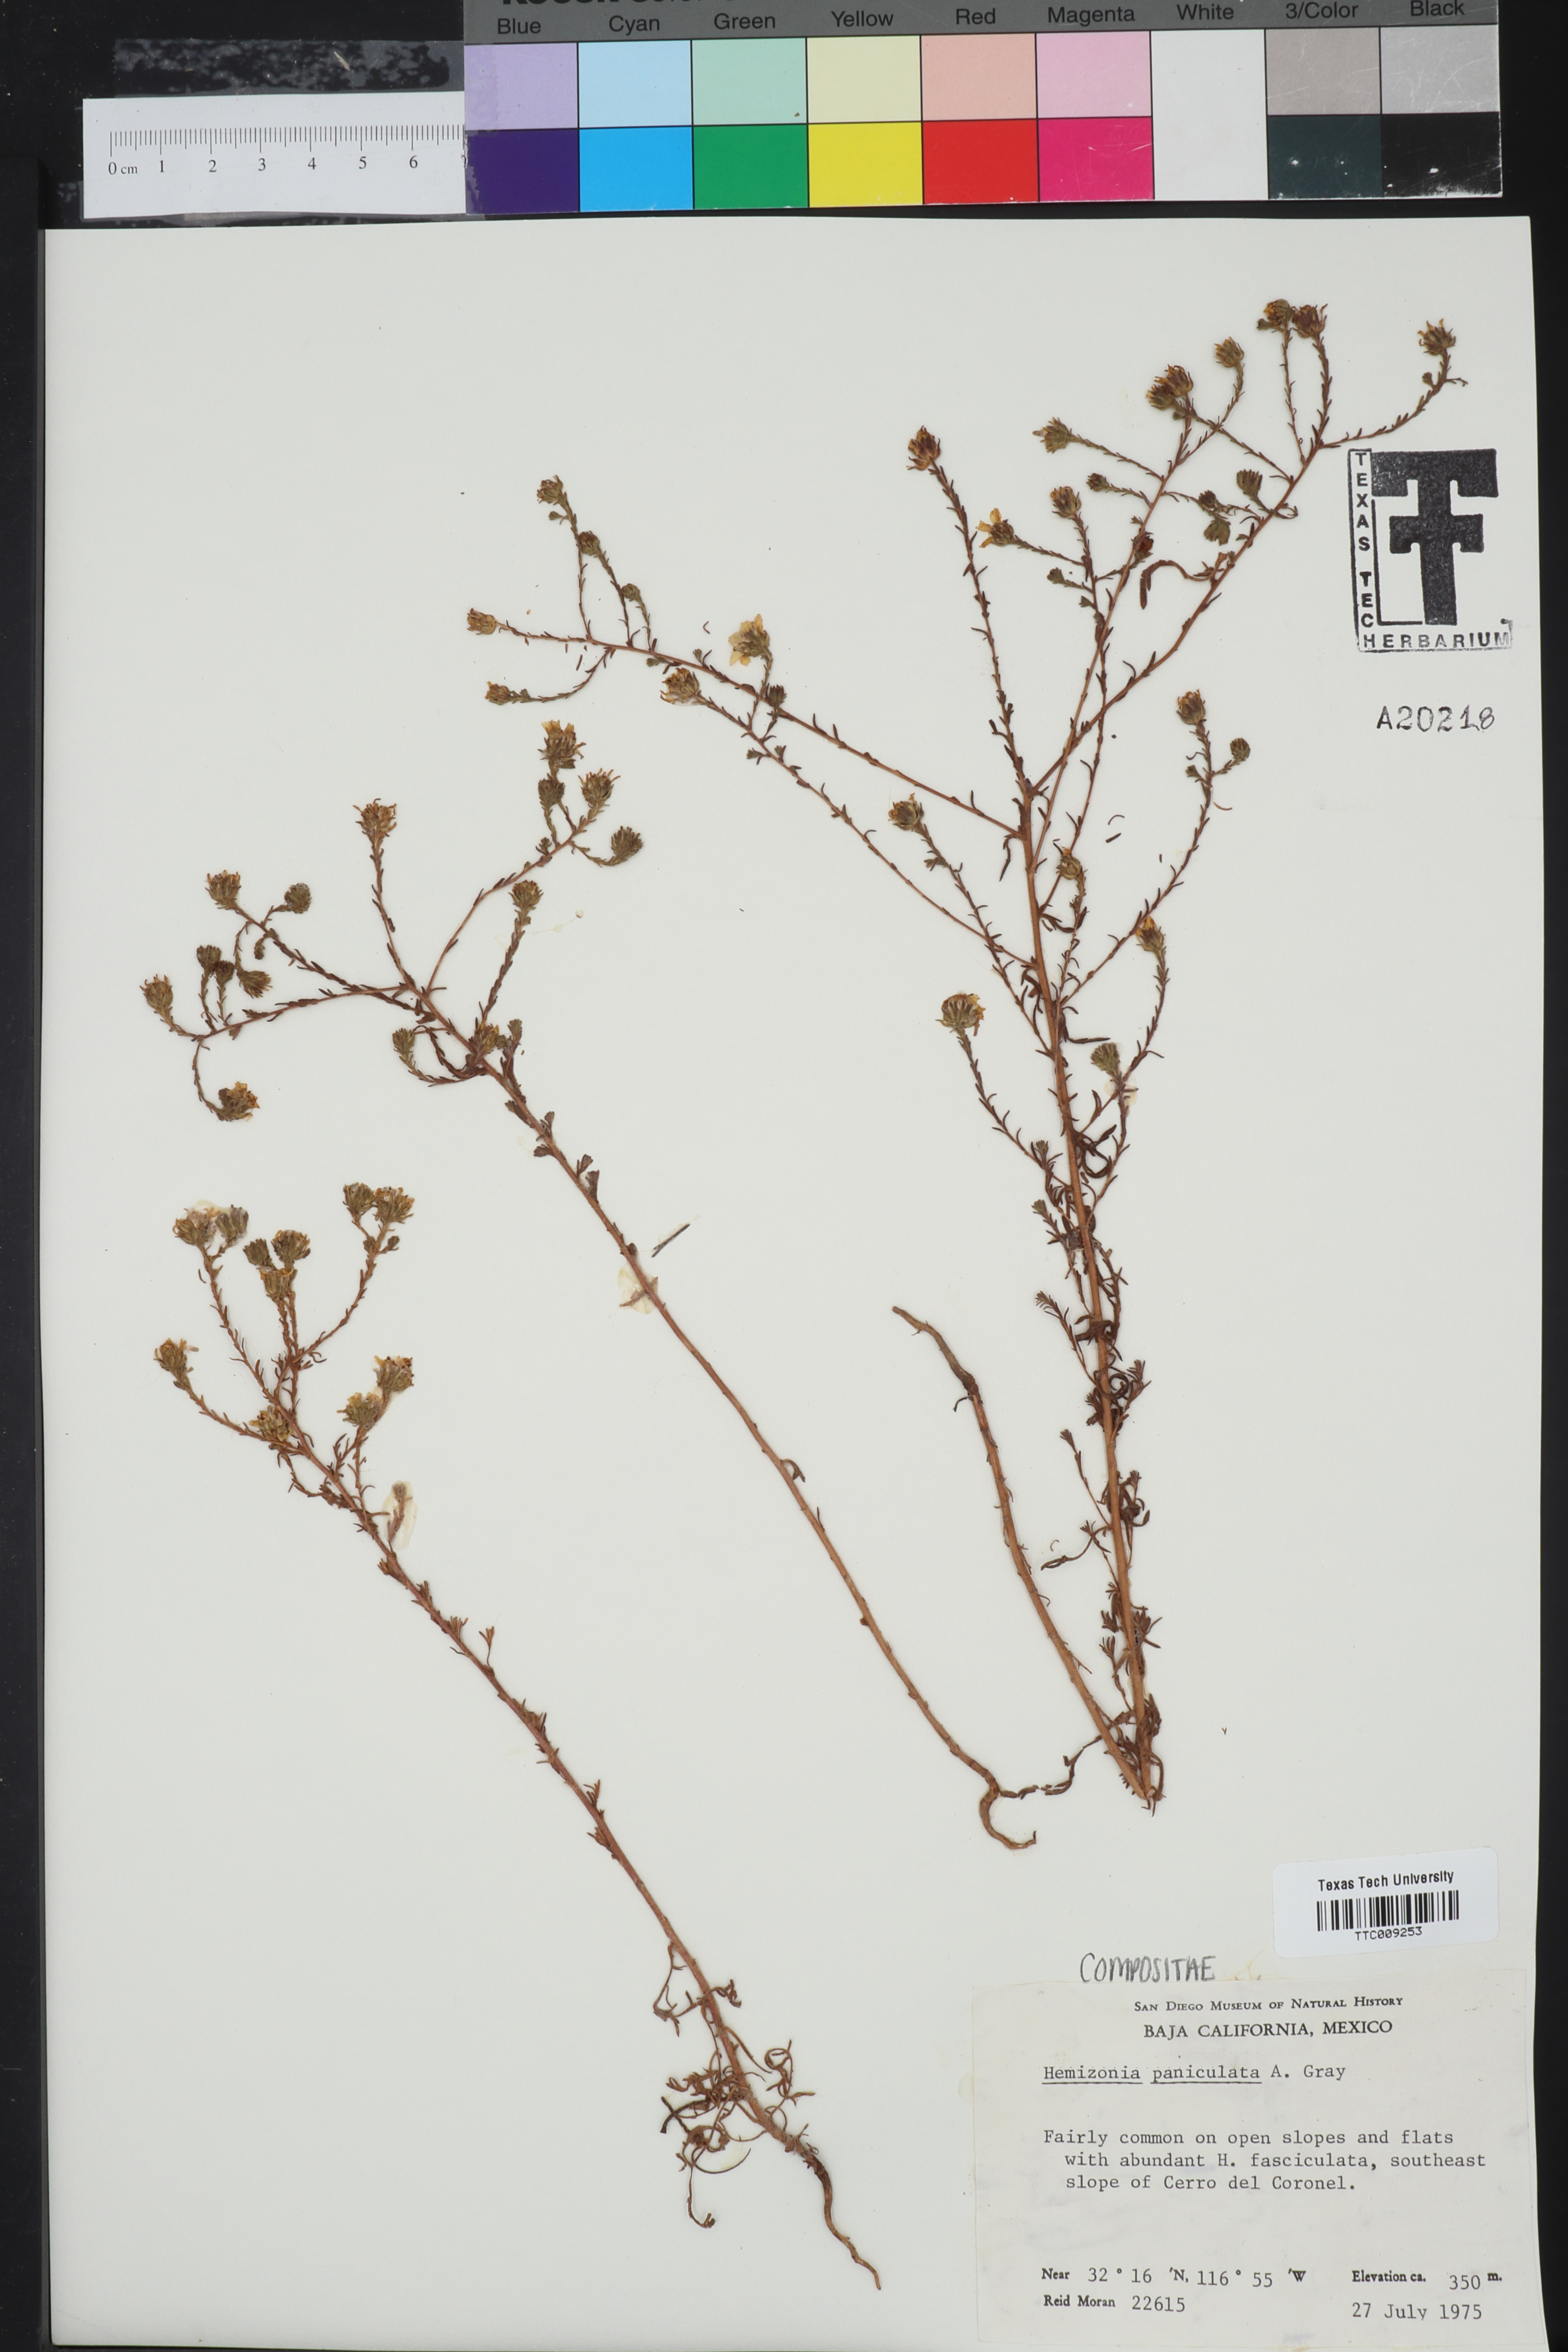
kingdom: Plantae
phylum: Tracheophyta
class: Magnoliopsida
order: Asterales
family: Asteraceae
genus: Deinandra
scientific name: Deinandra paniculata
